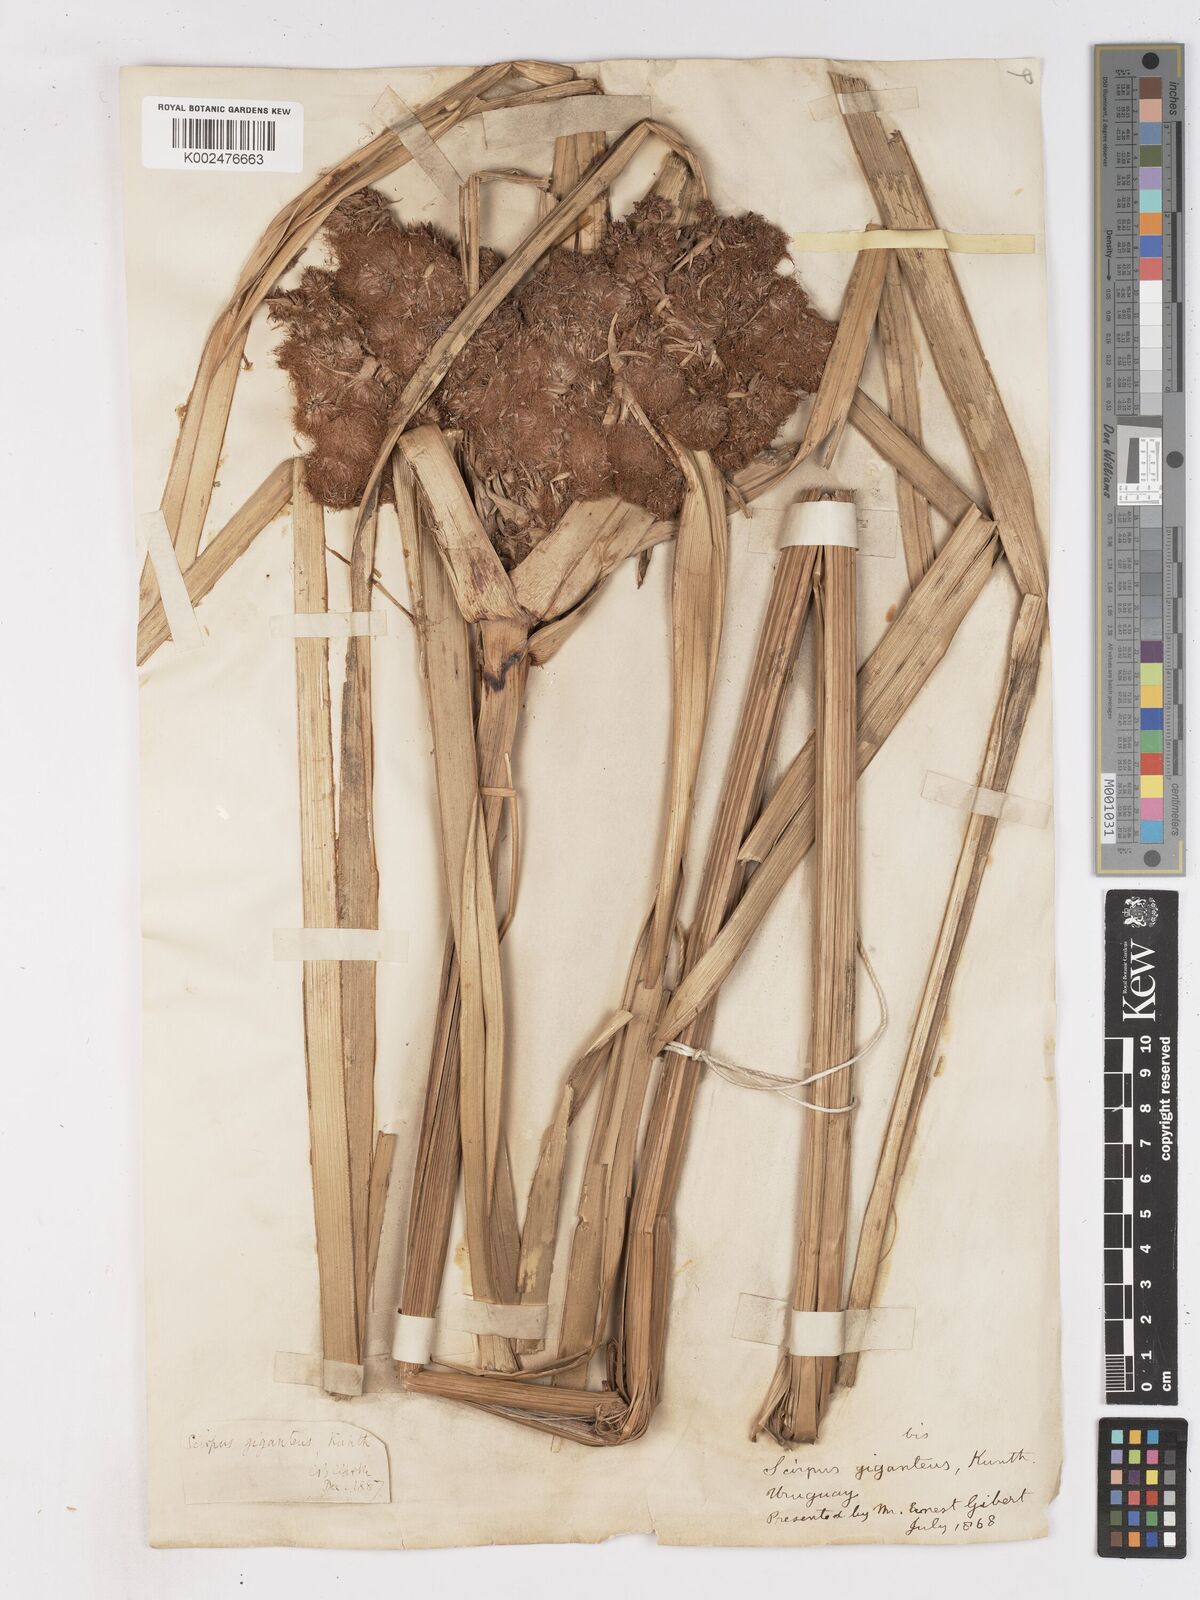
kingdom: Plantae
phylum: Tracheophyta
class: Liliopsida
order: Poales
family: Cyperaceae
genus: Cyperus
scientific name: Cyperus byssaceus
